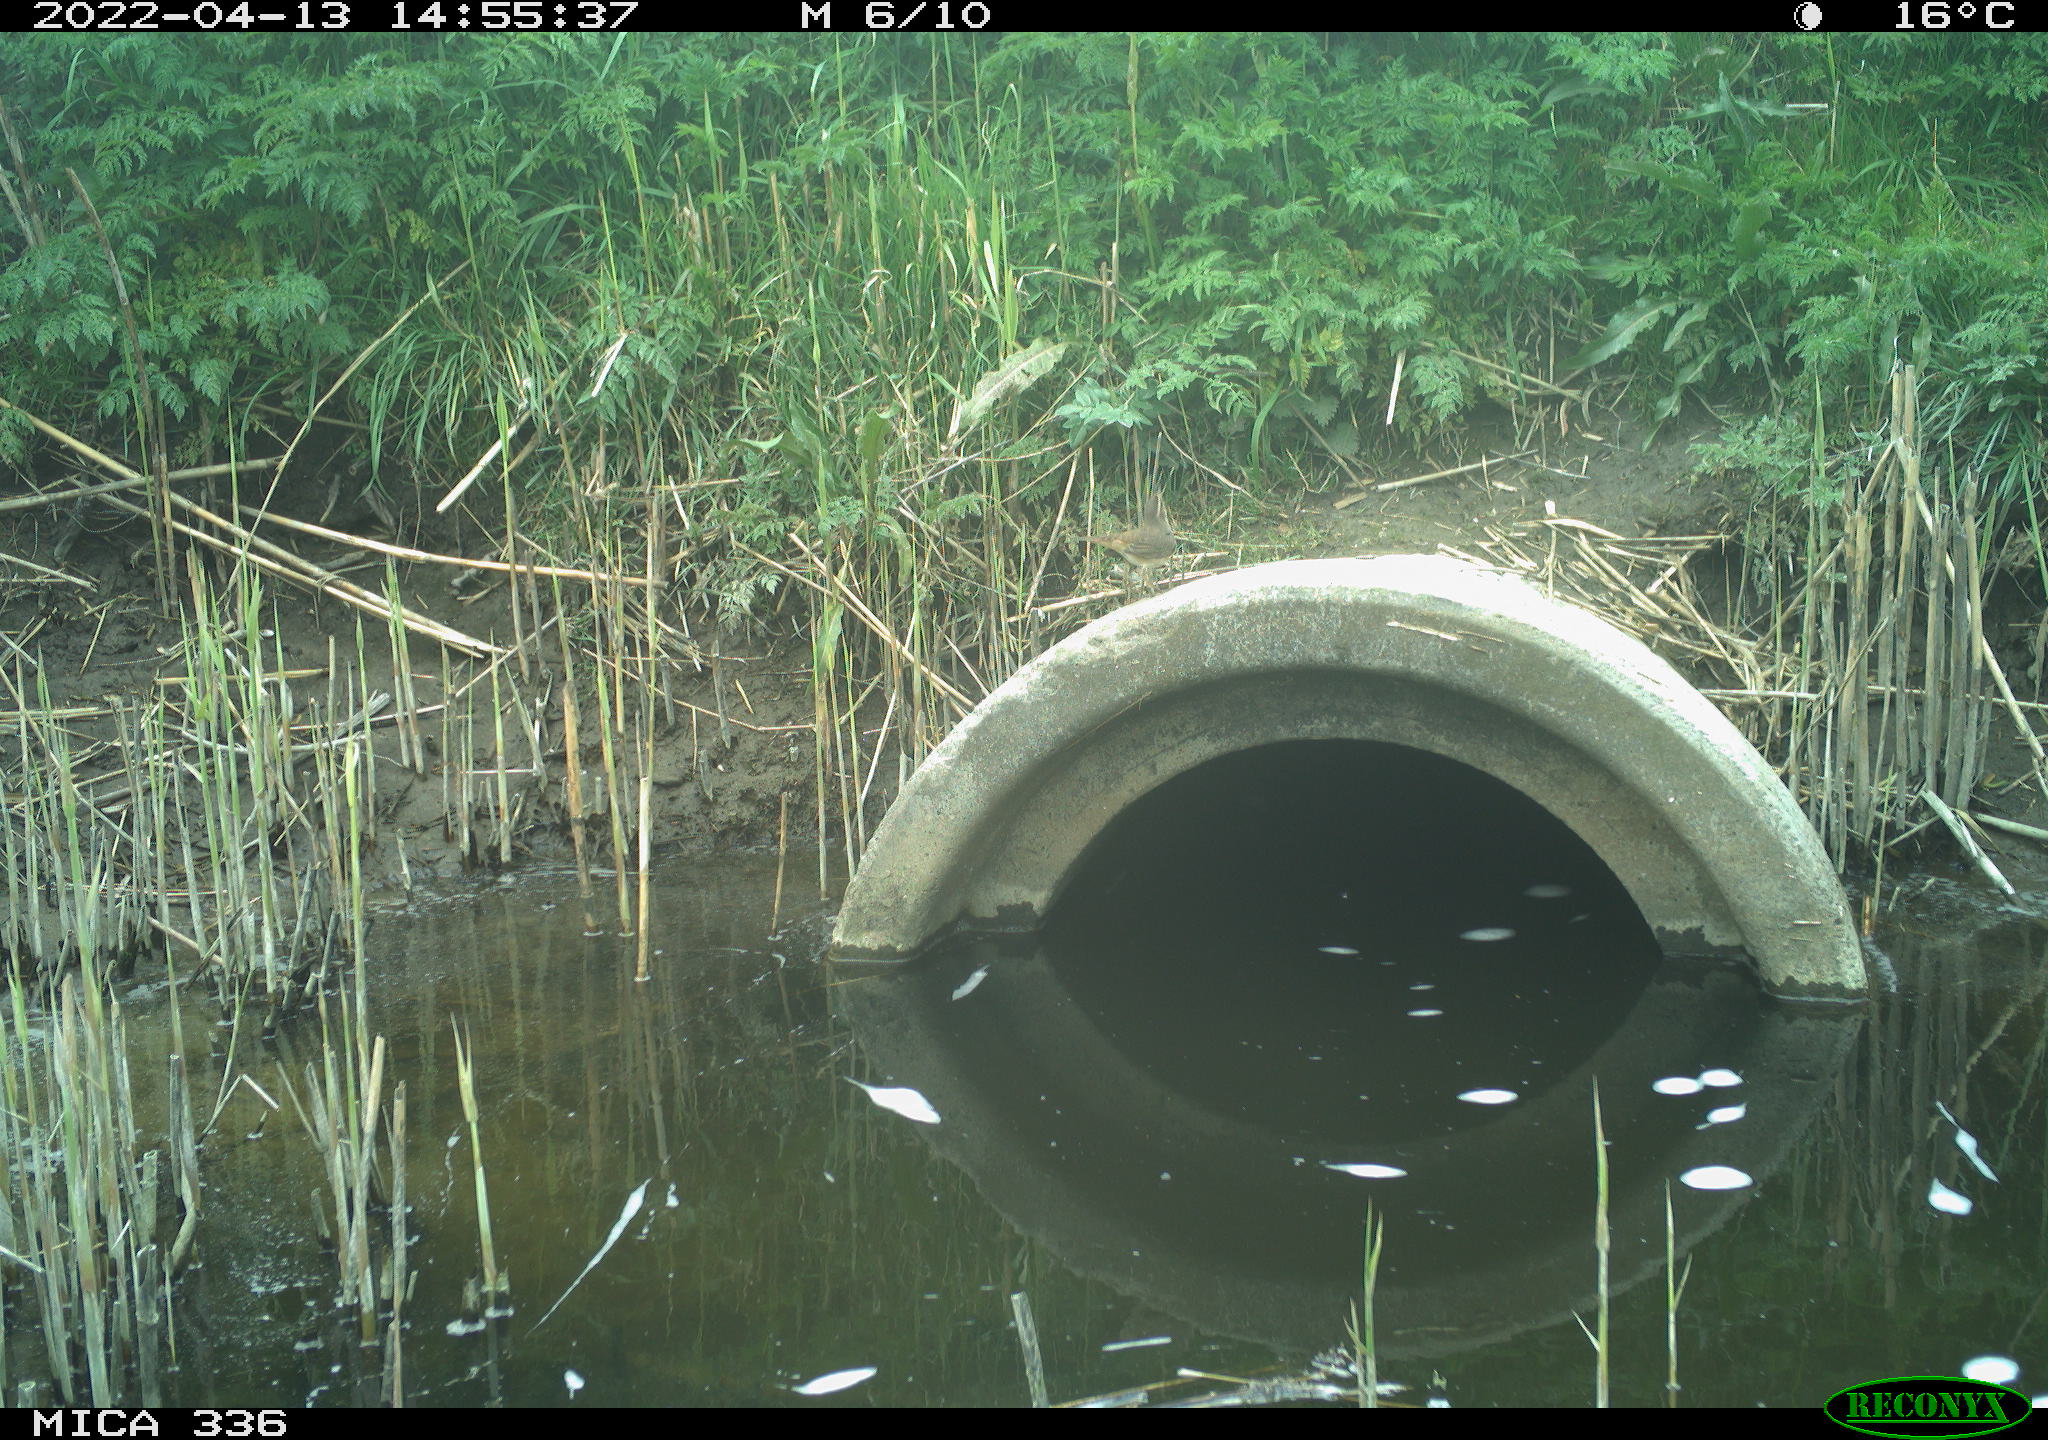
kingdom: Animalia
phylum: Chordata
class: Aves
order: Passeriformes
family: Muscicapidae
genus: Luscinia
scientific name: Luscinia svecica
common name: Bluethroat
